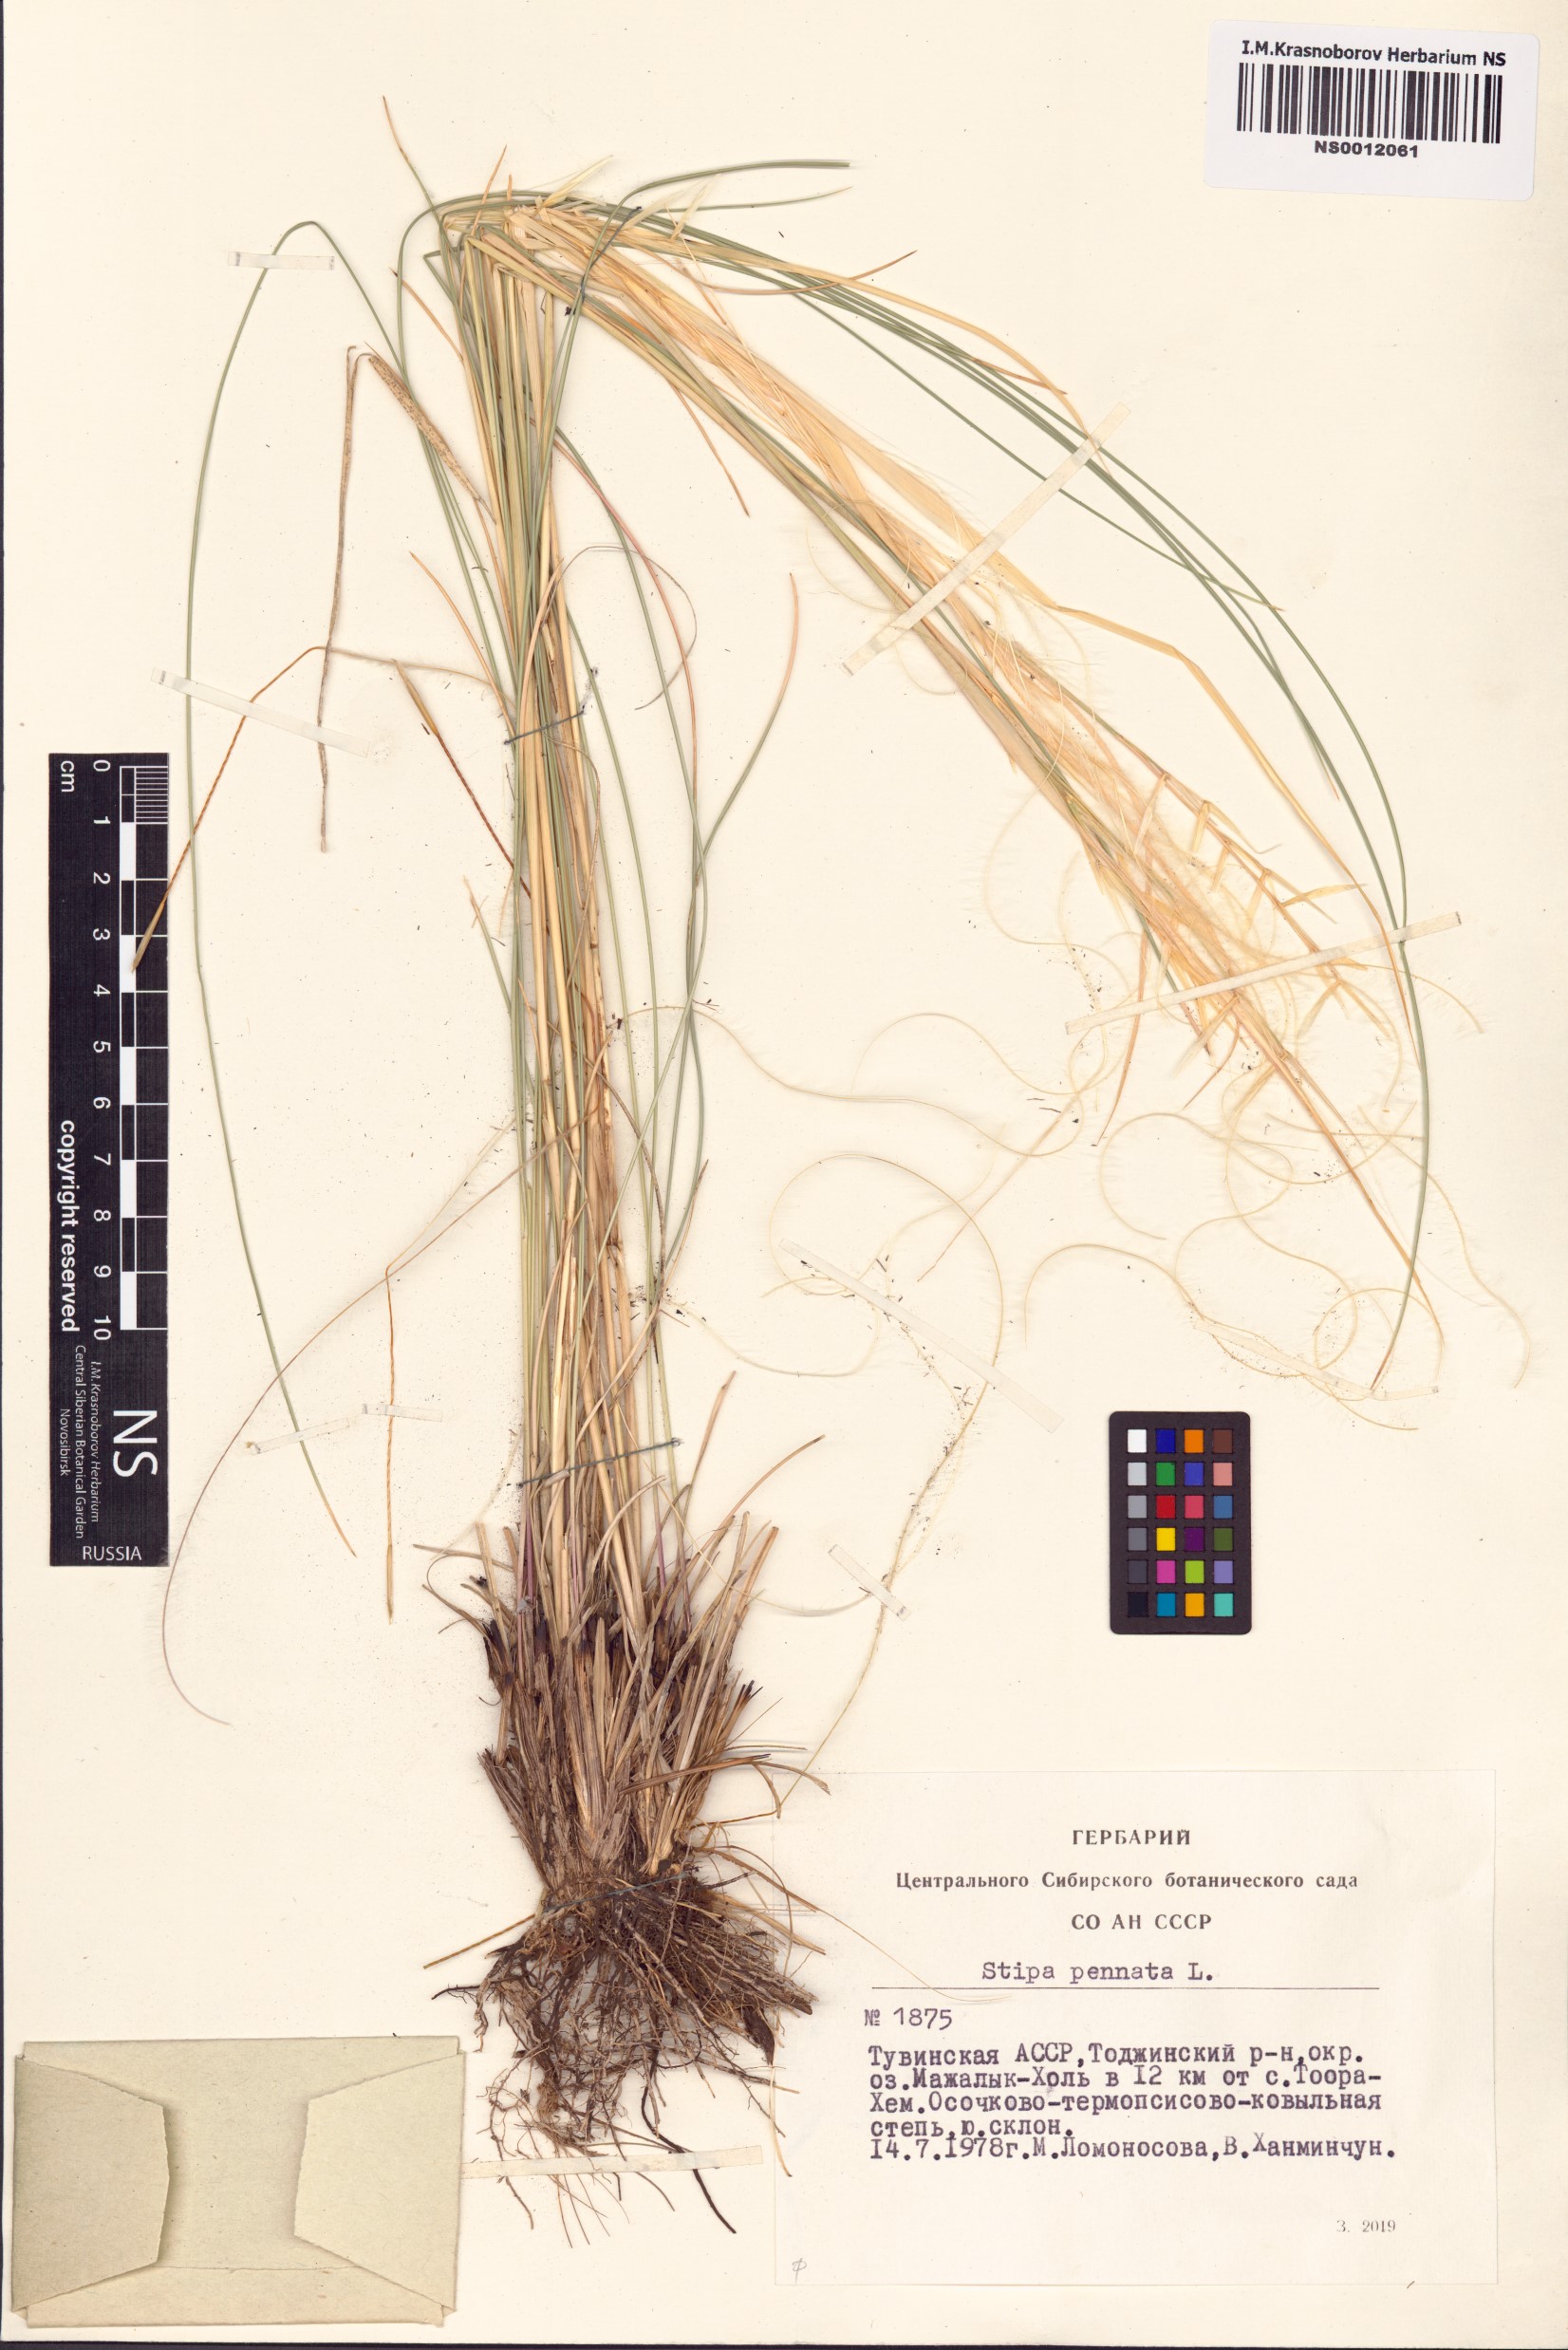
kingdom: Plantae
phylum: Tracheophyta
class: Liliopsida
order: Poales
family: Poaceae
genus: Stipa
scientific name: Stipa pennata
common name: European feather grass
